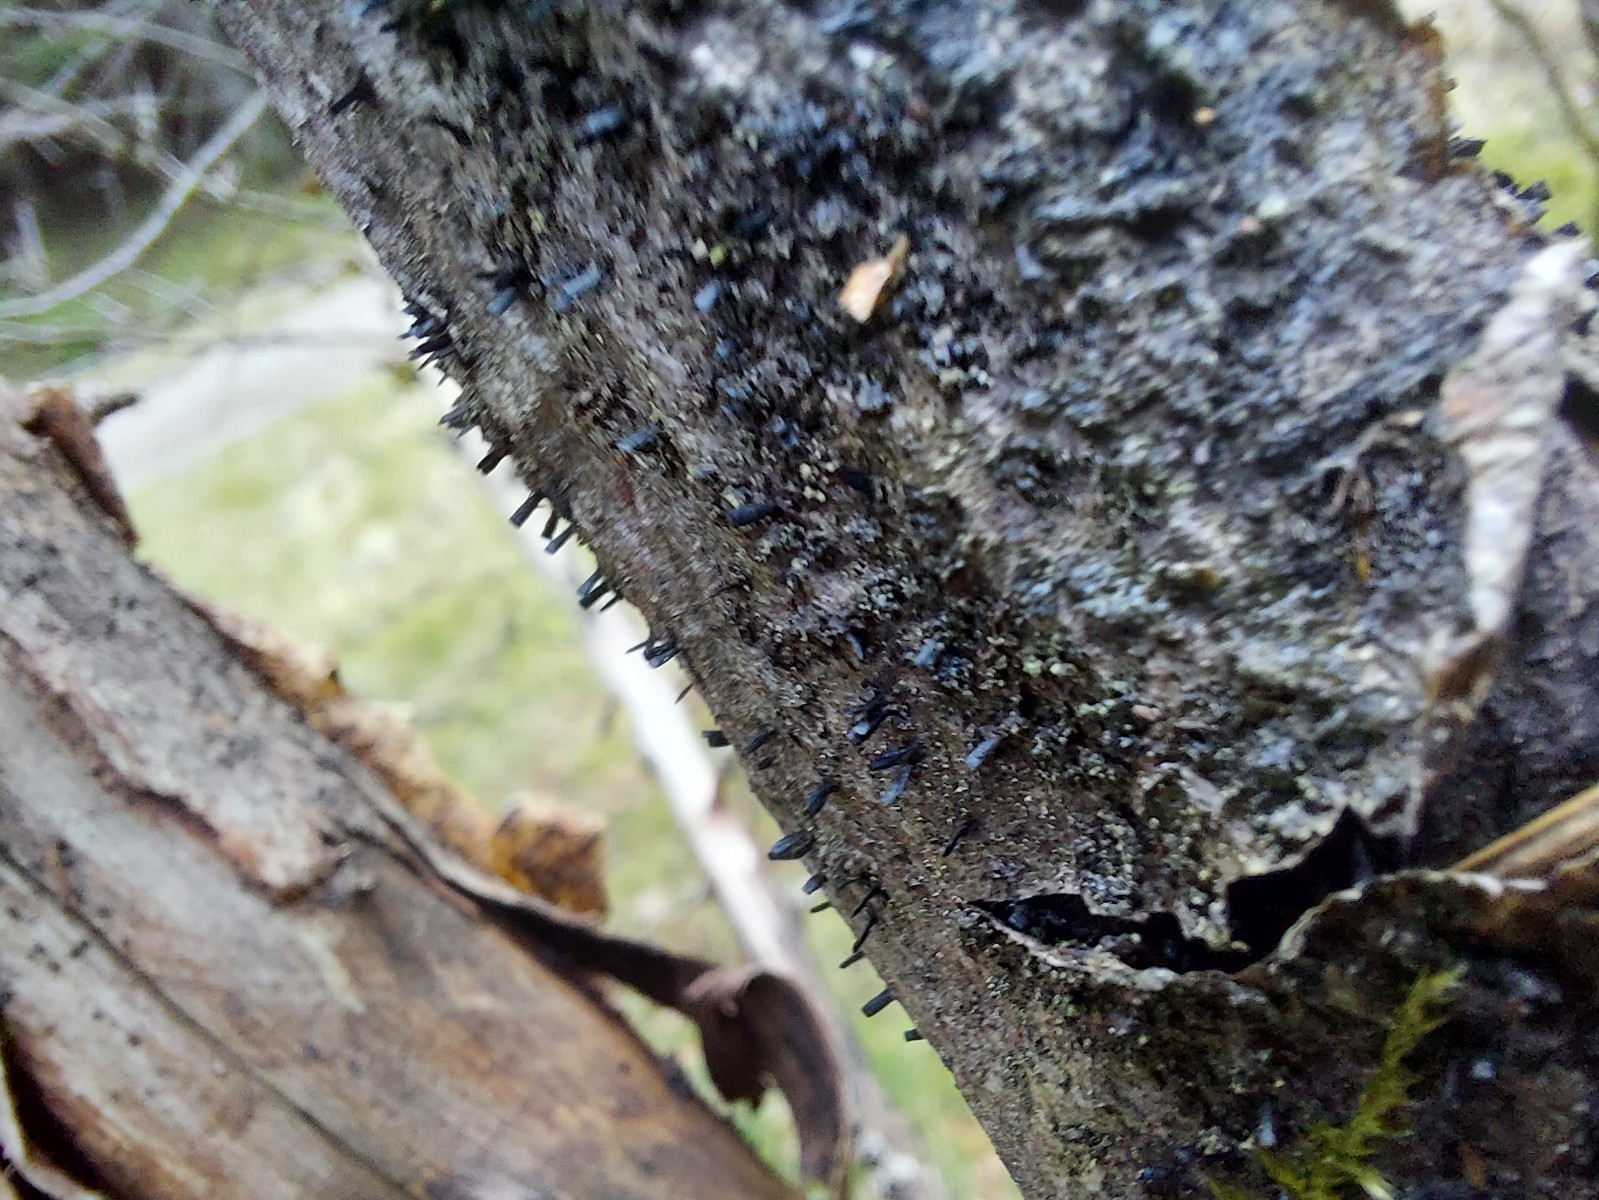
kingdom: Fungi
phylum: Ascomycota
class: Eurotiomycetes
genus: Glyphium
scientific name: Glyphium elatum
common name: kuløkse
